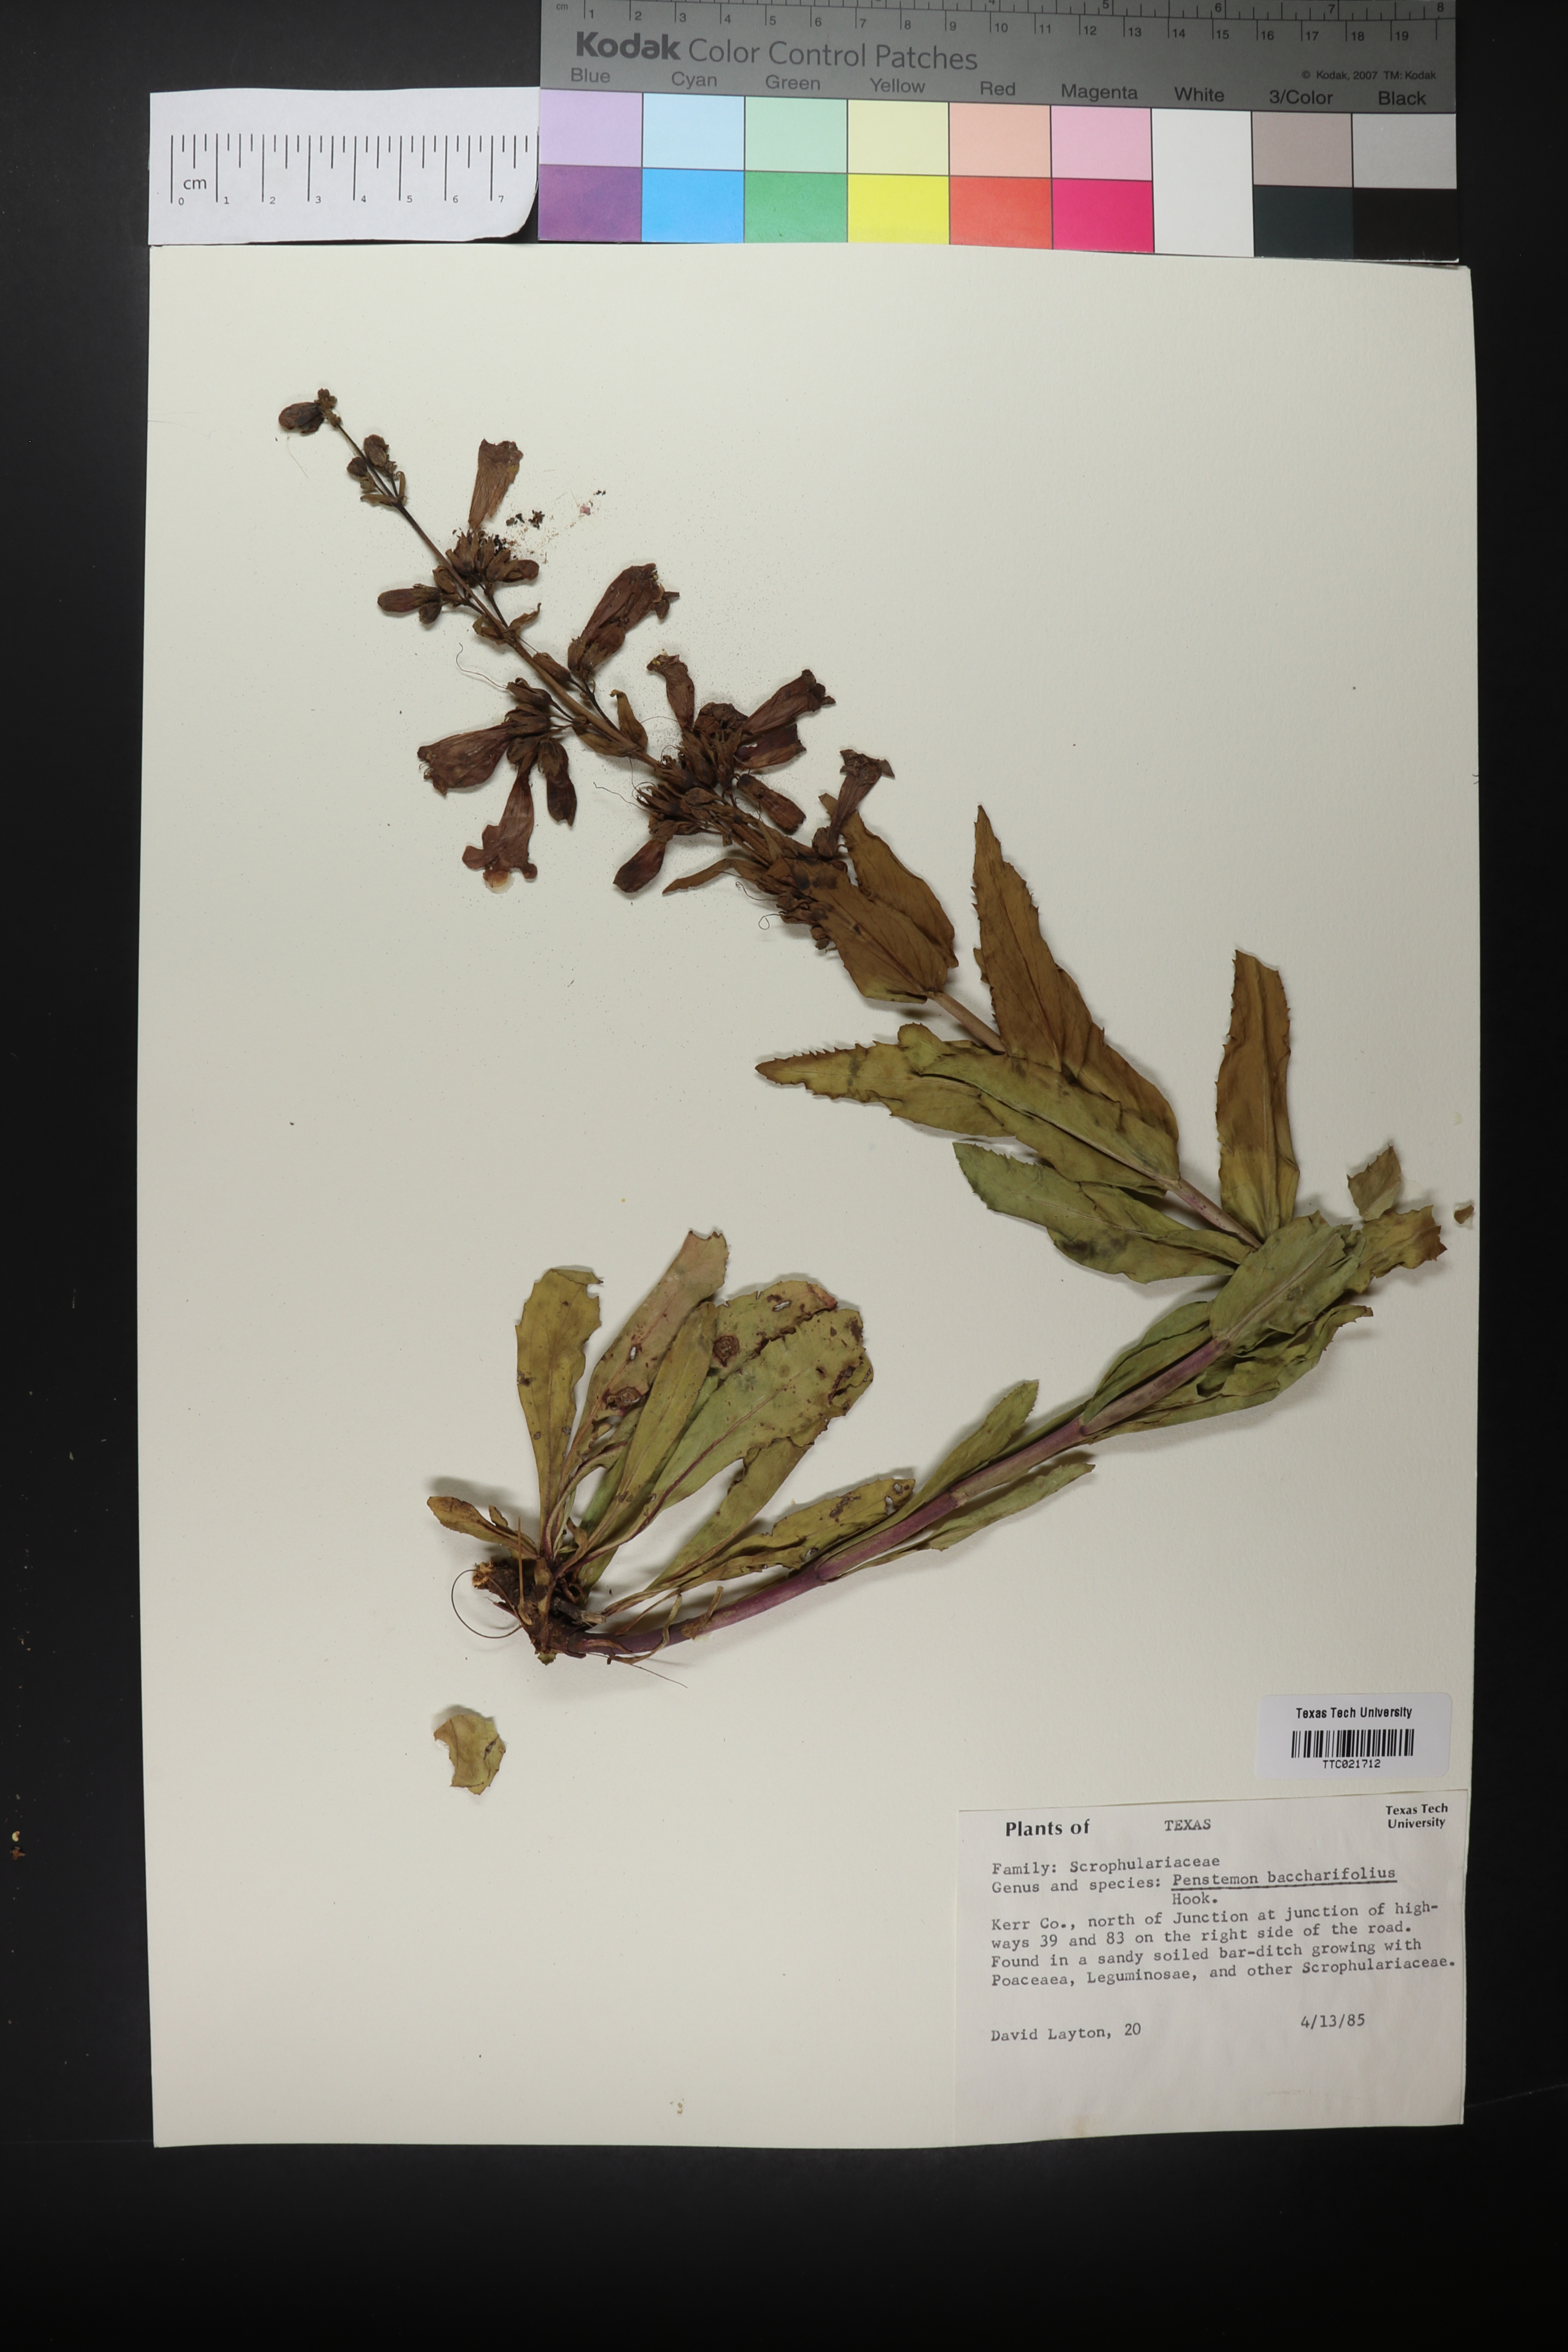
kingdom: Plantae
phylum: Tracheophyta
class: Magnoliopsida
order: Lamiales
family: Plantaginaceae
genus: Penstemon
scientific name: Penstemon baccharifolius
